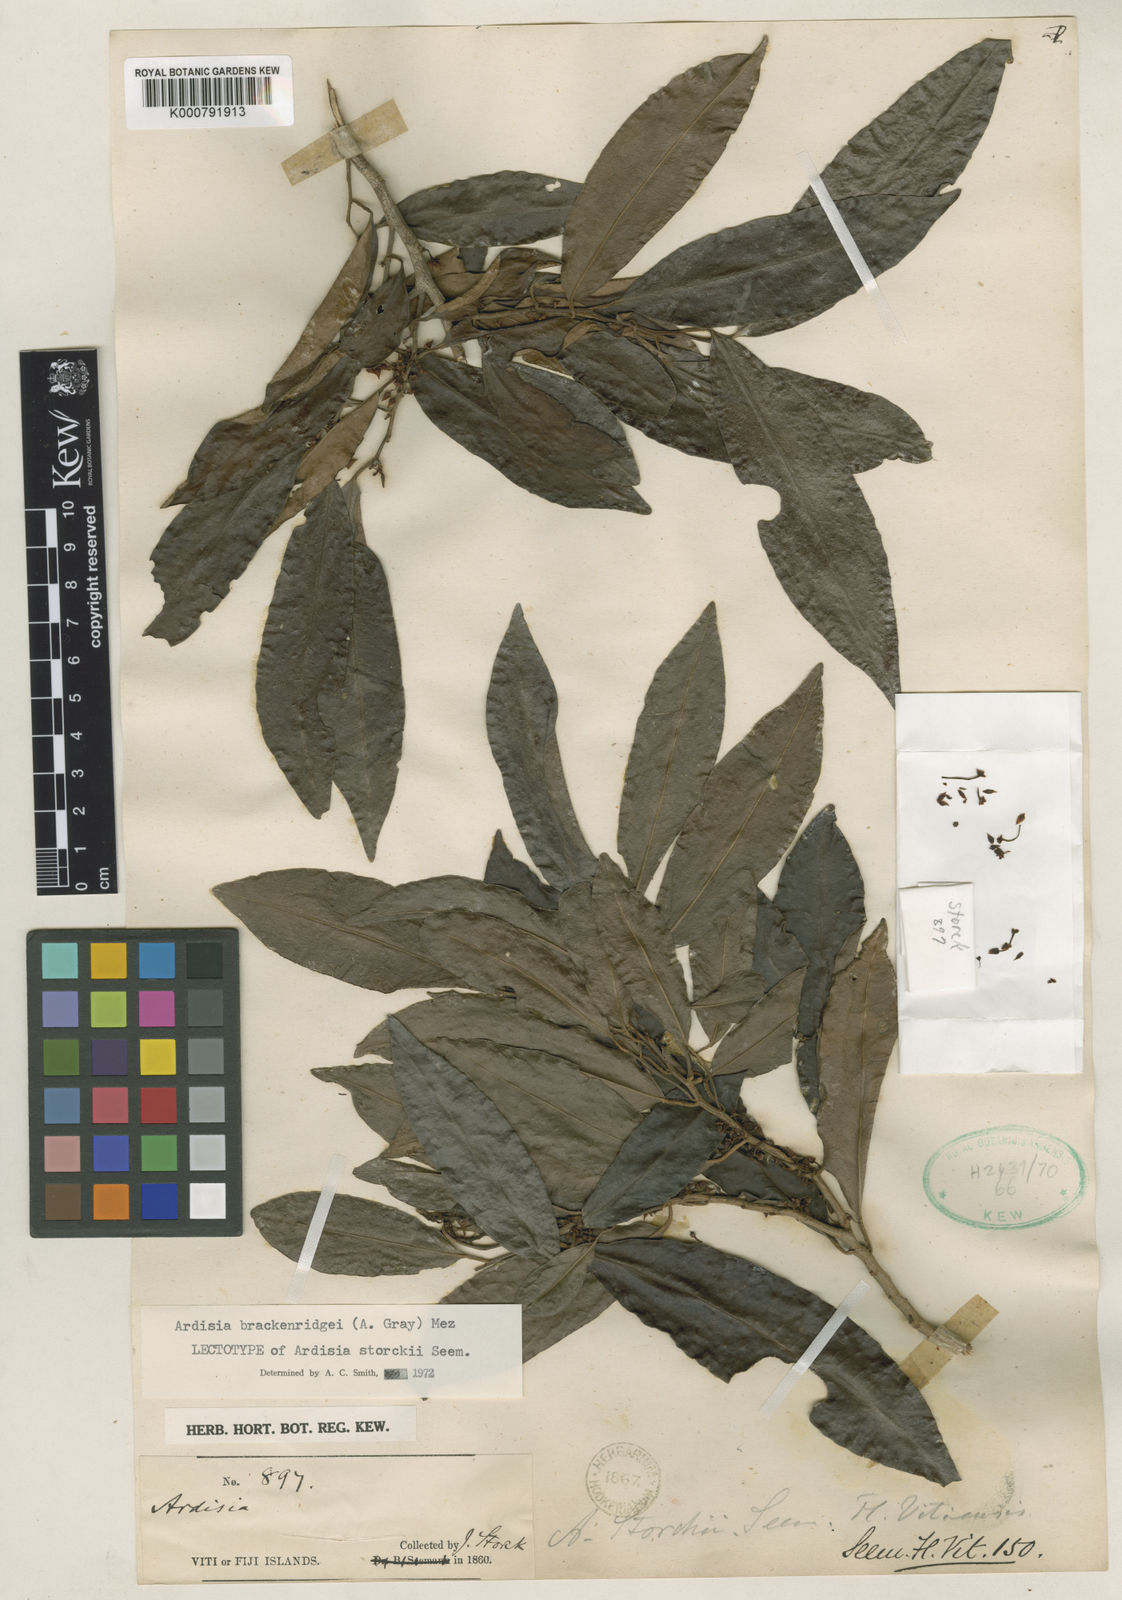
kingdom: Plantae
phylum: Tracheophyta
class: Magnoliopsida
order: Ericales
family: Primulaceae
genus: Ardisia
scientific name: Ardisia brackenridgei
